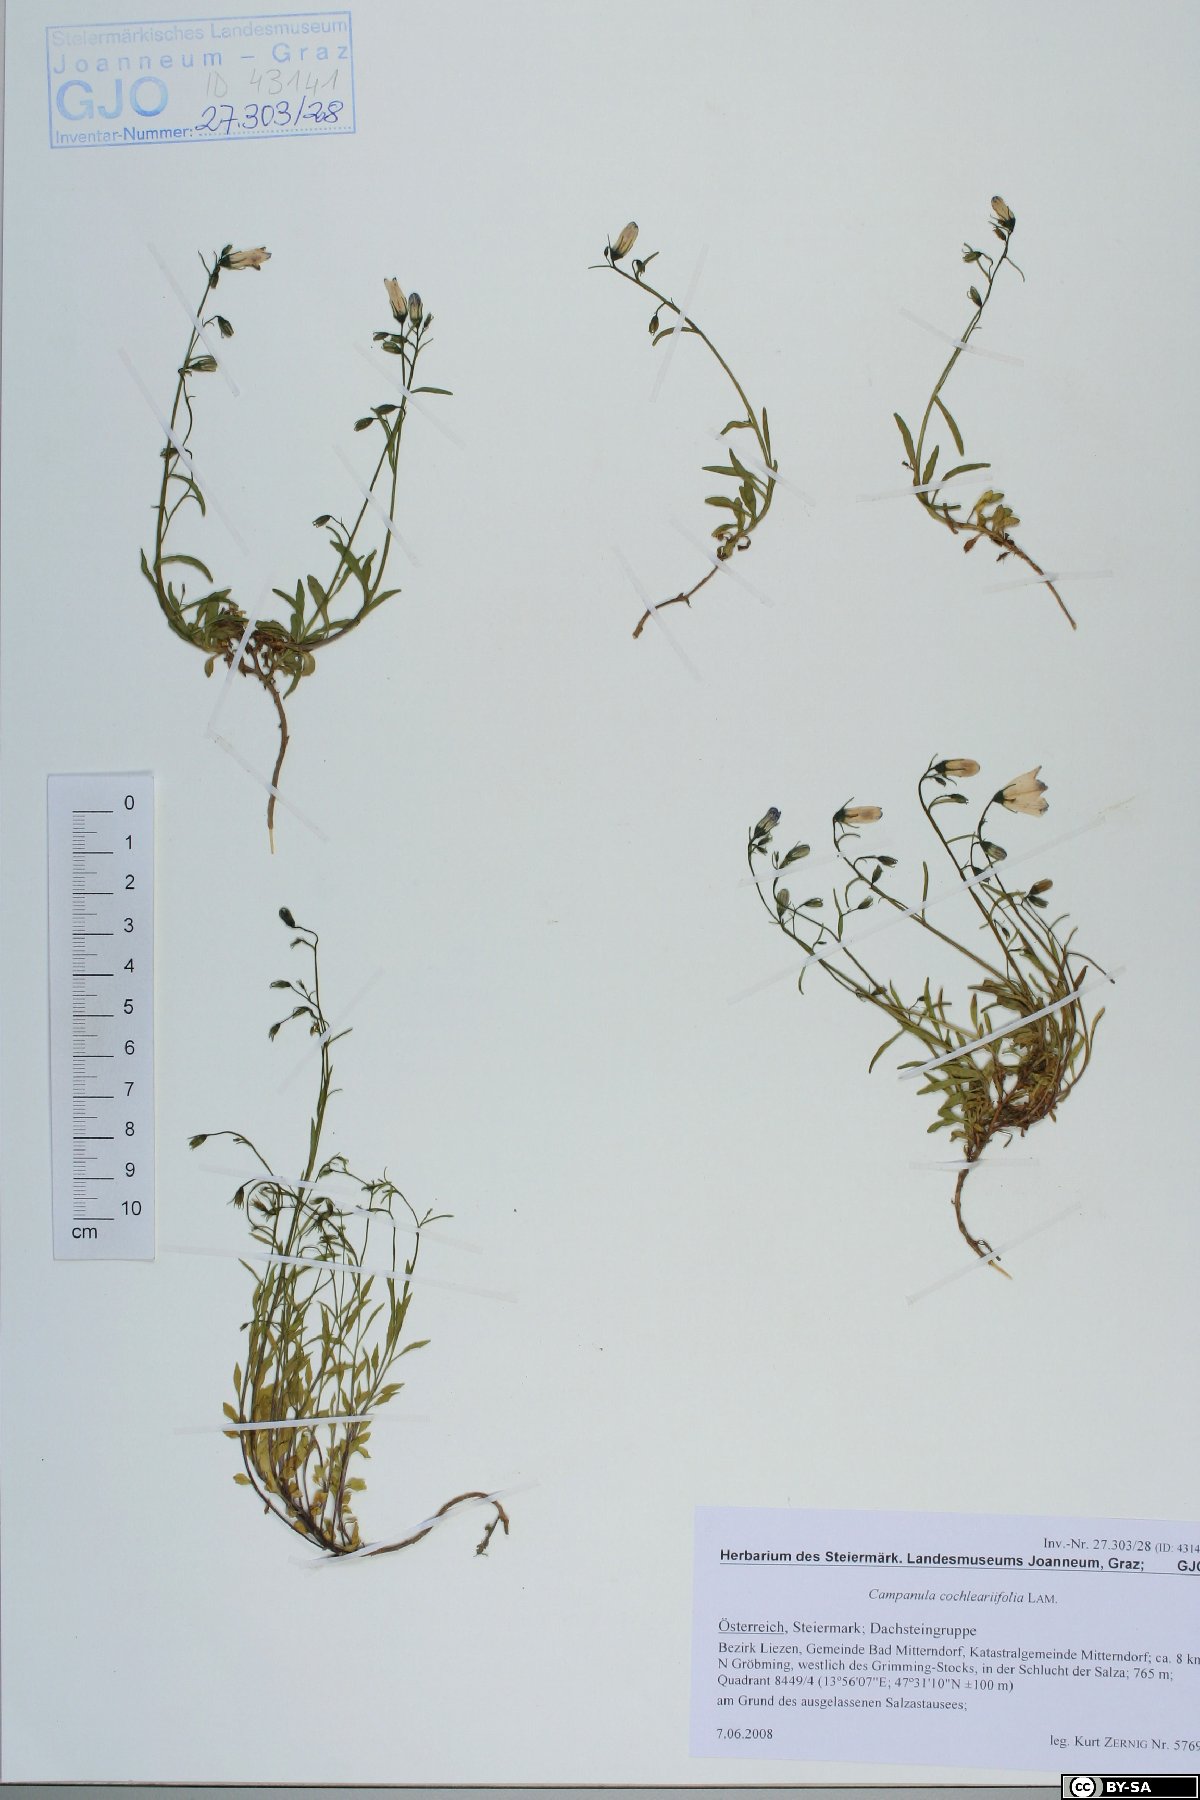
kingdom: Plantae
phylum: Tracheophyta
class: Magnoliopsida
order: Asterales
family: Campanulaceae
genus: Campanula
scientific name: Campanula cochleariifolia
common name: Fairies'-thimbles
